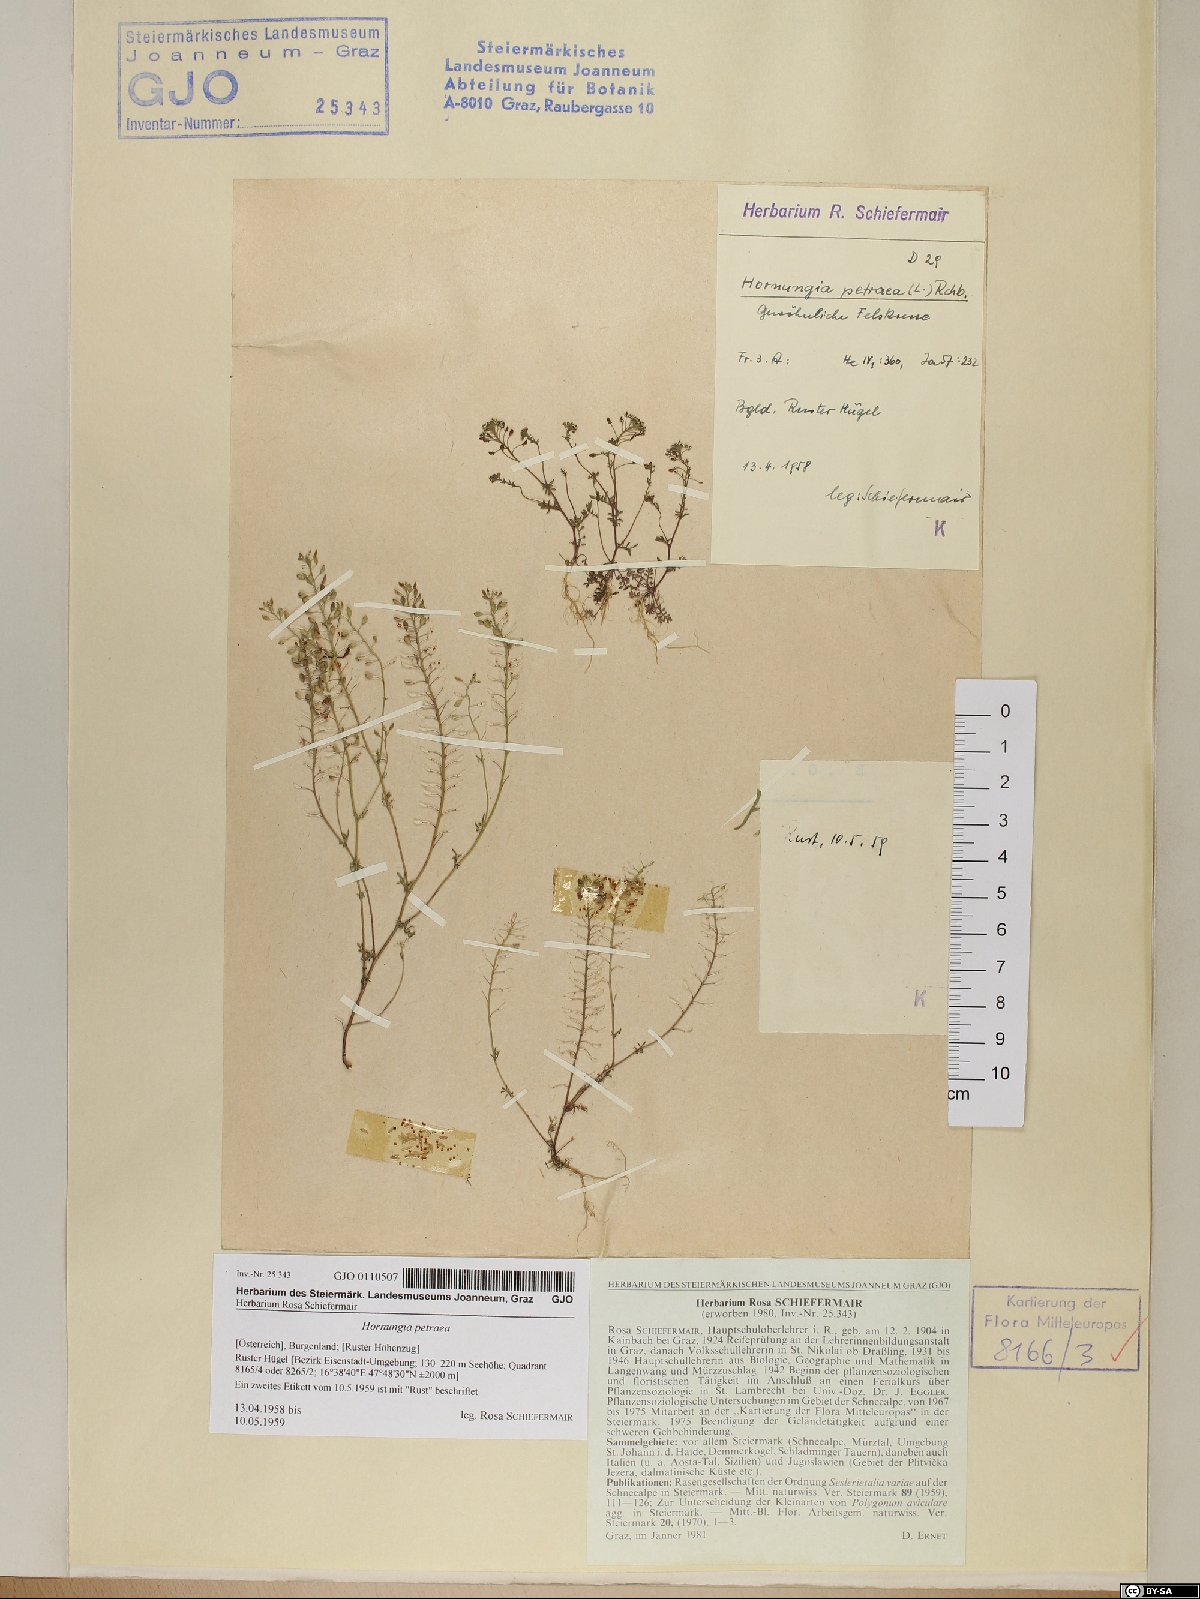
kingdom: Plantae
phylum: Tracheophyta
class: Magnoliopsida
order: Brassicales
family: Brassicaceae
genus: Hornungia
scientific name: Hornungia petraea
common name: Hutchinsia
